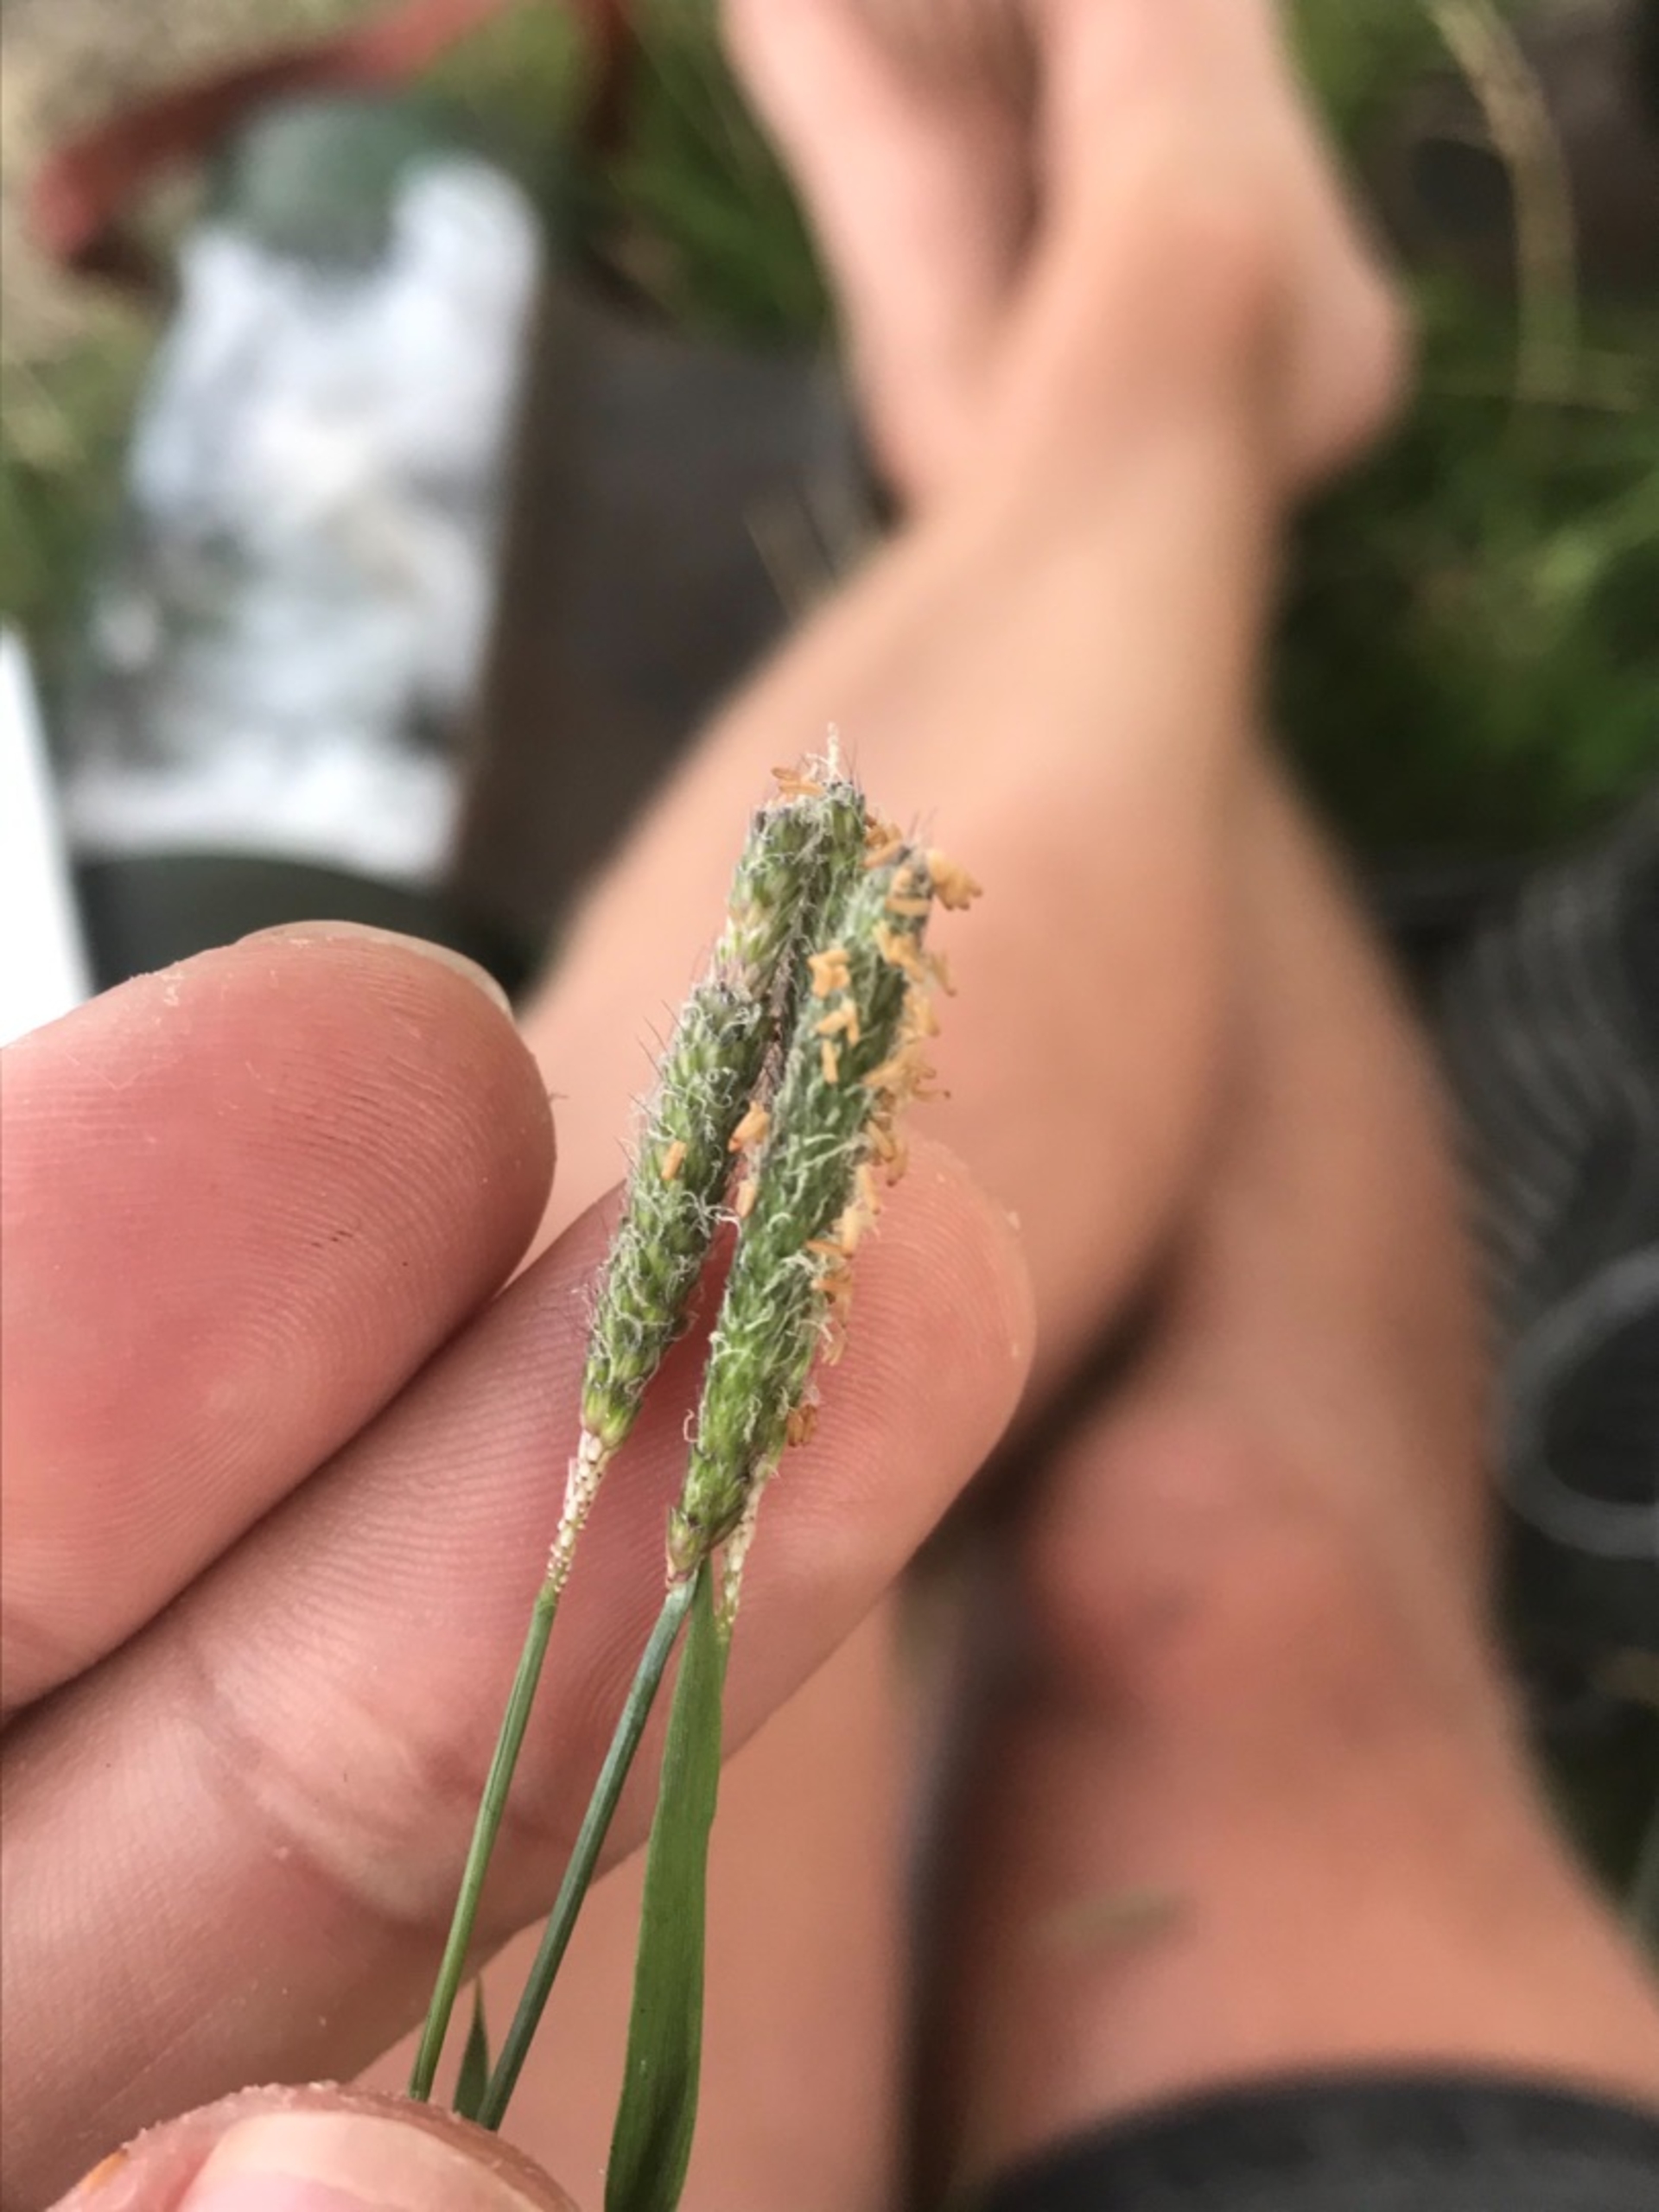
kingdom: Plantae
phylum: Tracheophyta
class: Liliopsida
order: Poales
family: Poaceae
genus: Alopecurus
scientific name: Alopecurus geniculatus
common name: Knæbøjet rævehale
